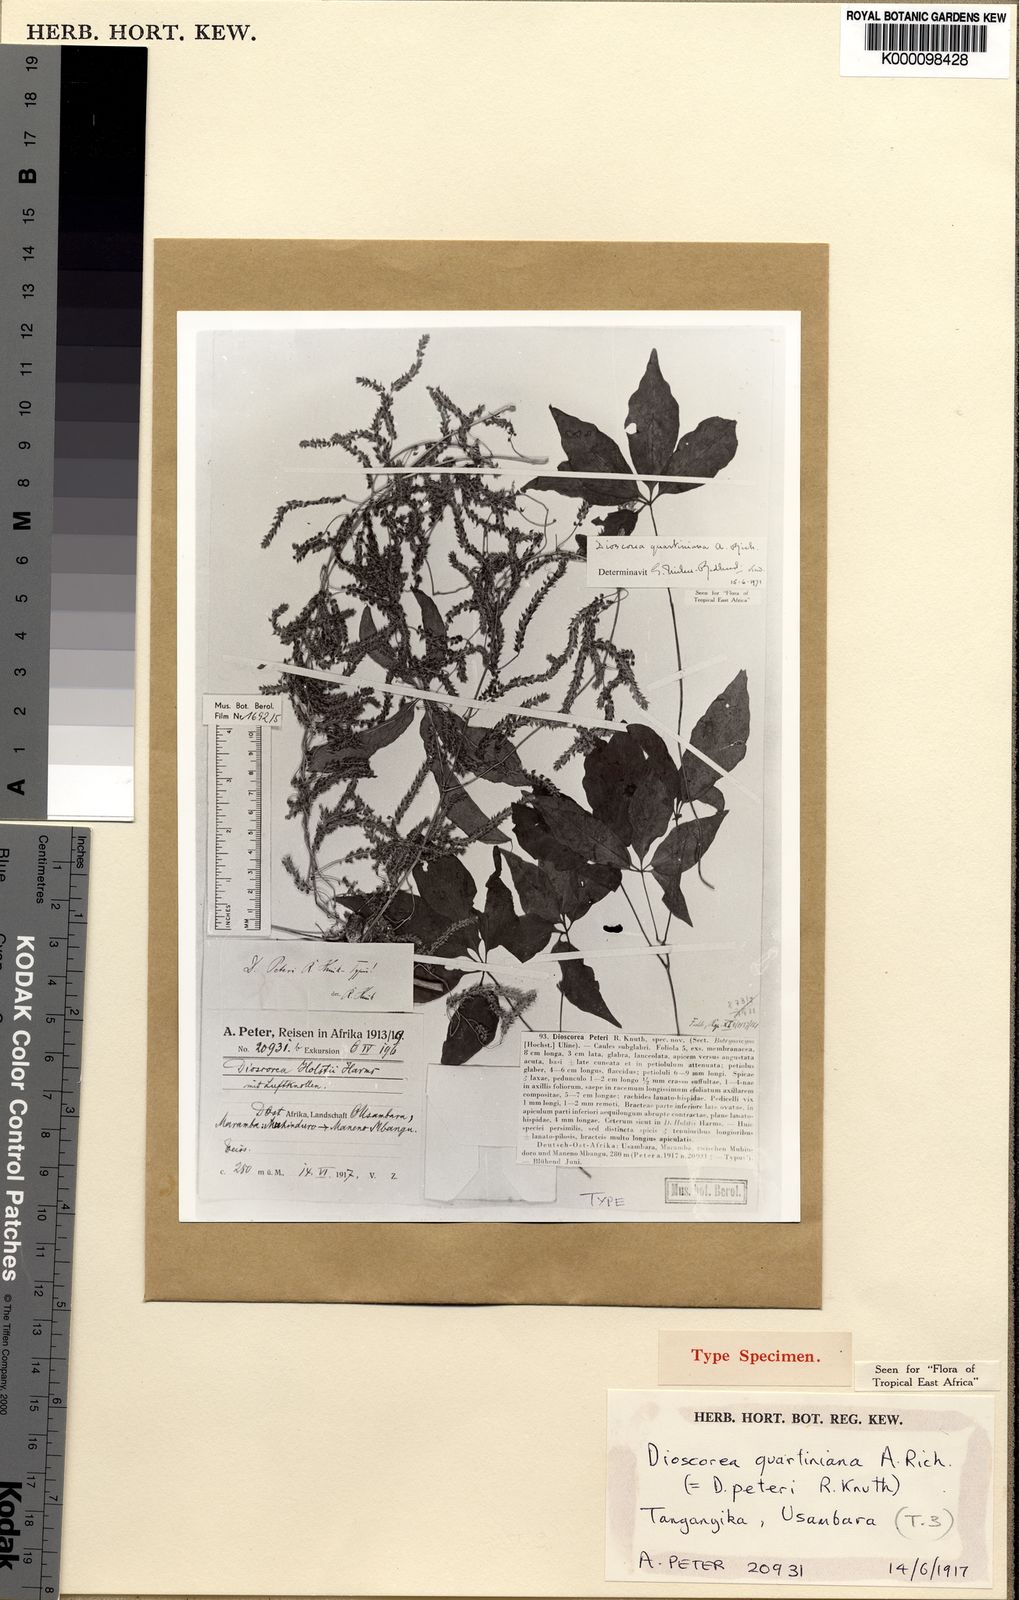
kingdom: Plantae
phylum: Tracheophyta
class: Liliopsida
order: Dioscoreales
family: Dioscoreaceae
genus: Dioscorea
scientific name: Dioscorea quartiniana
